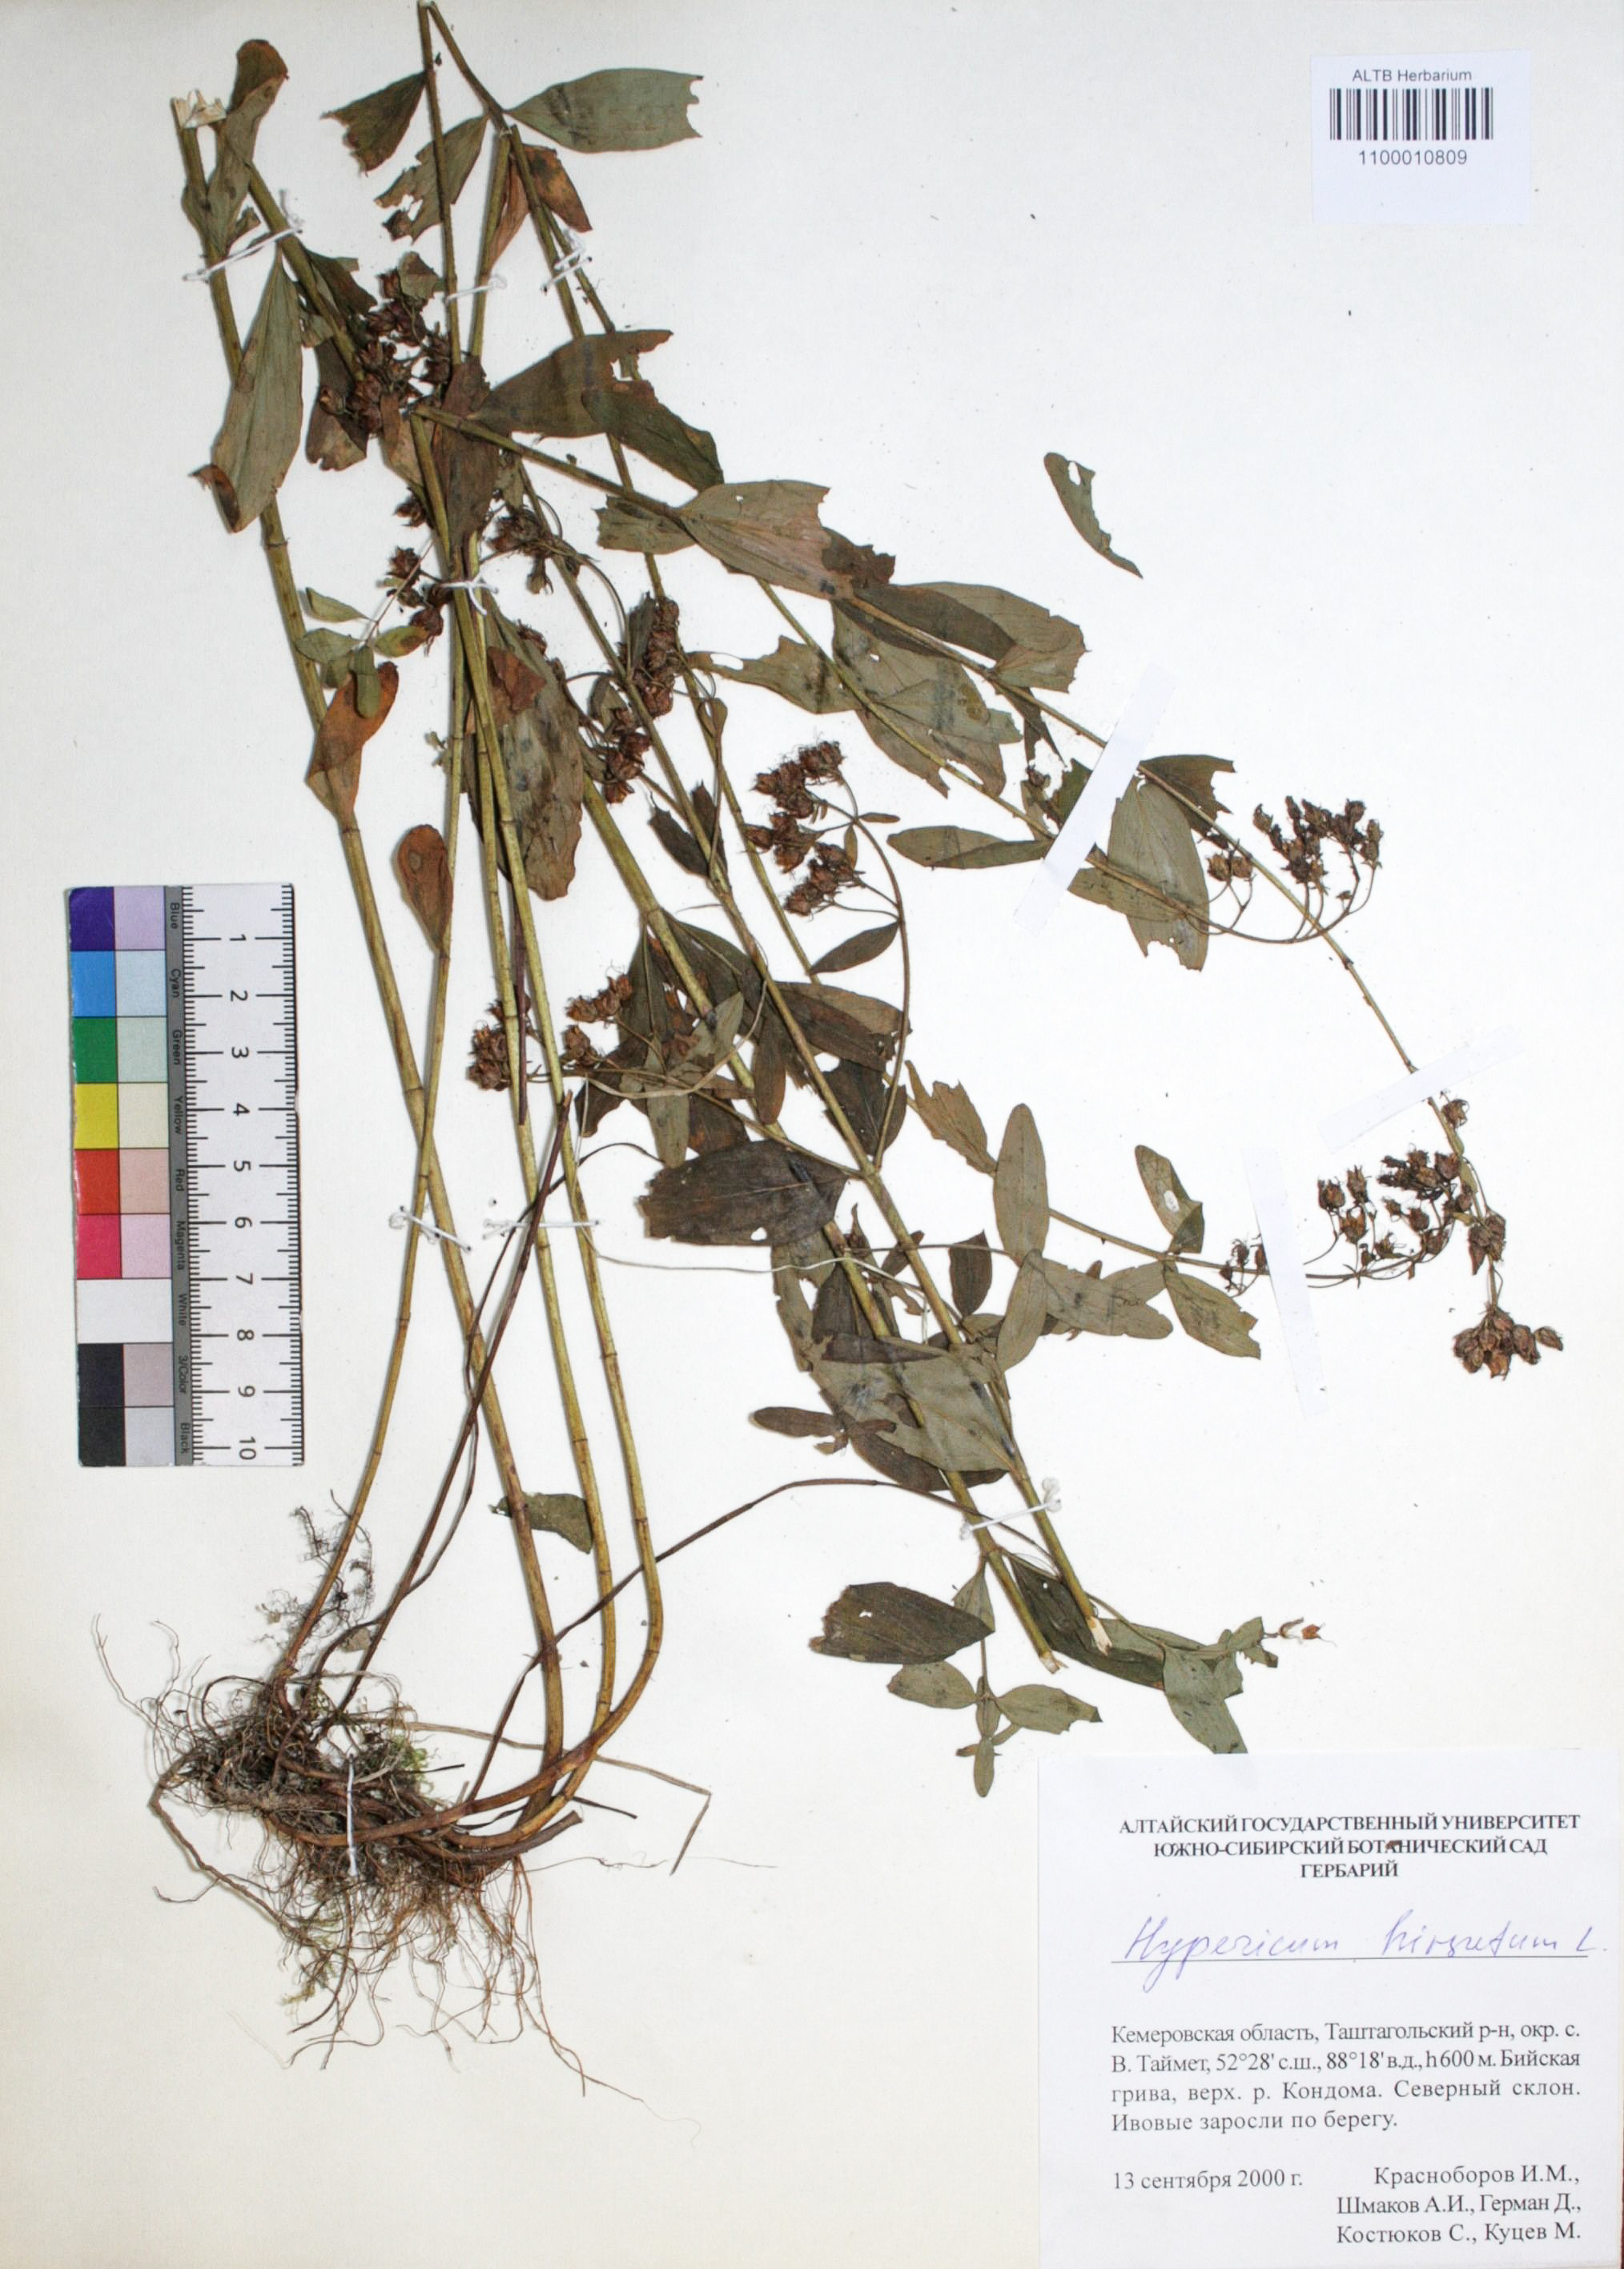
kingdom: Plantae
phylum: Tracheophyta
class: Magnoliopsida
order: Malpighiales
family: Hypericaceae
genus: Hypericum
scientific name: Hypericum hirsutum
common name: Hairy st. john's-wort
